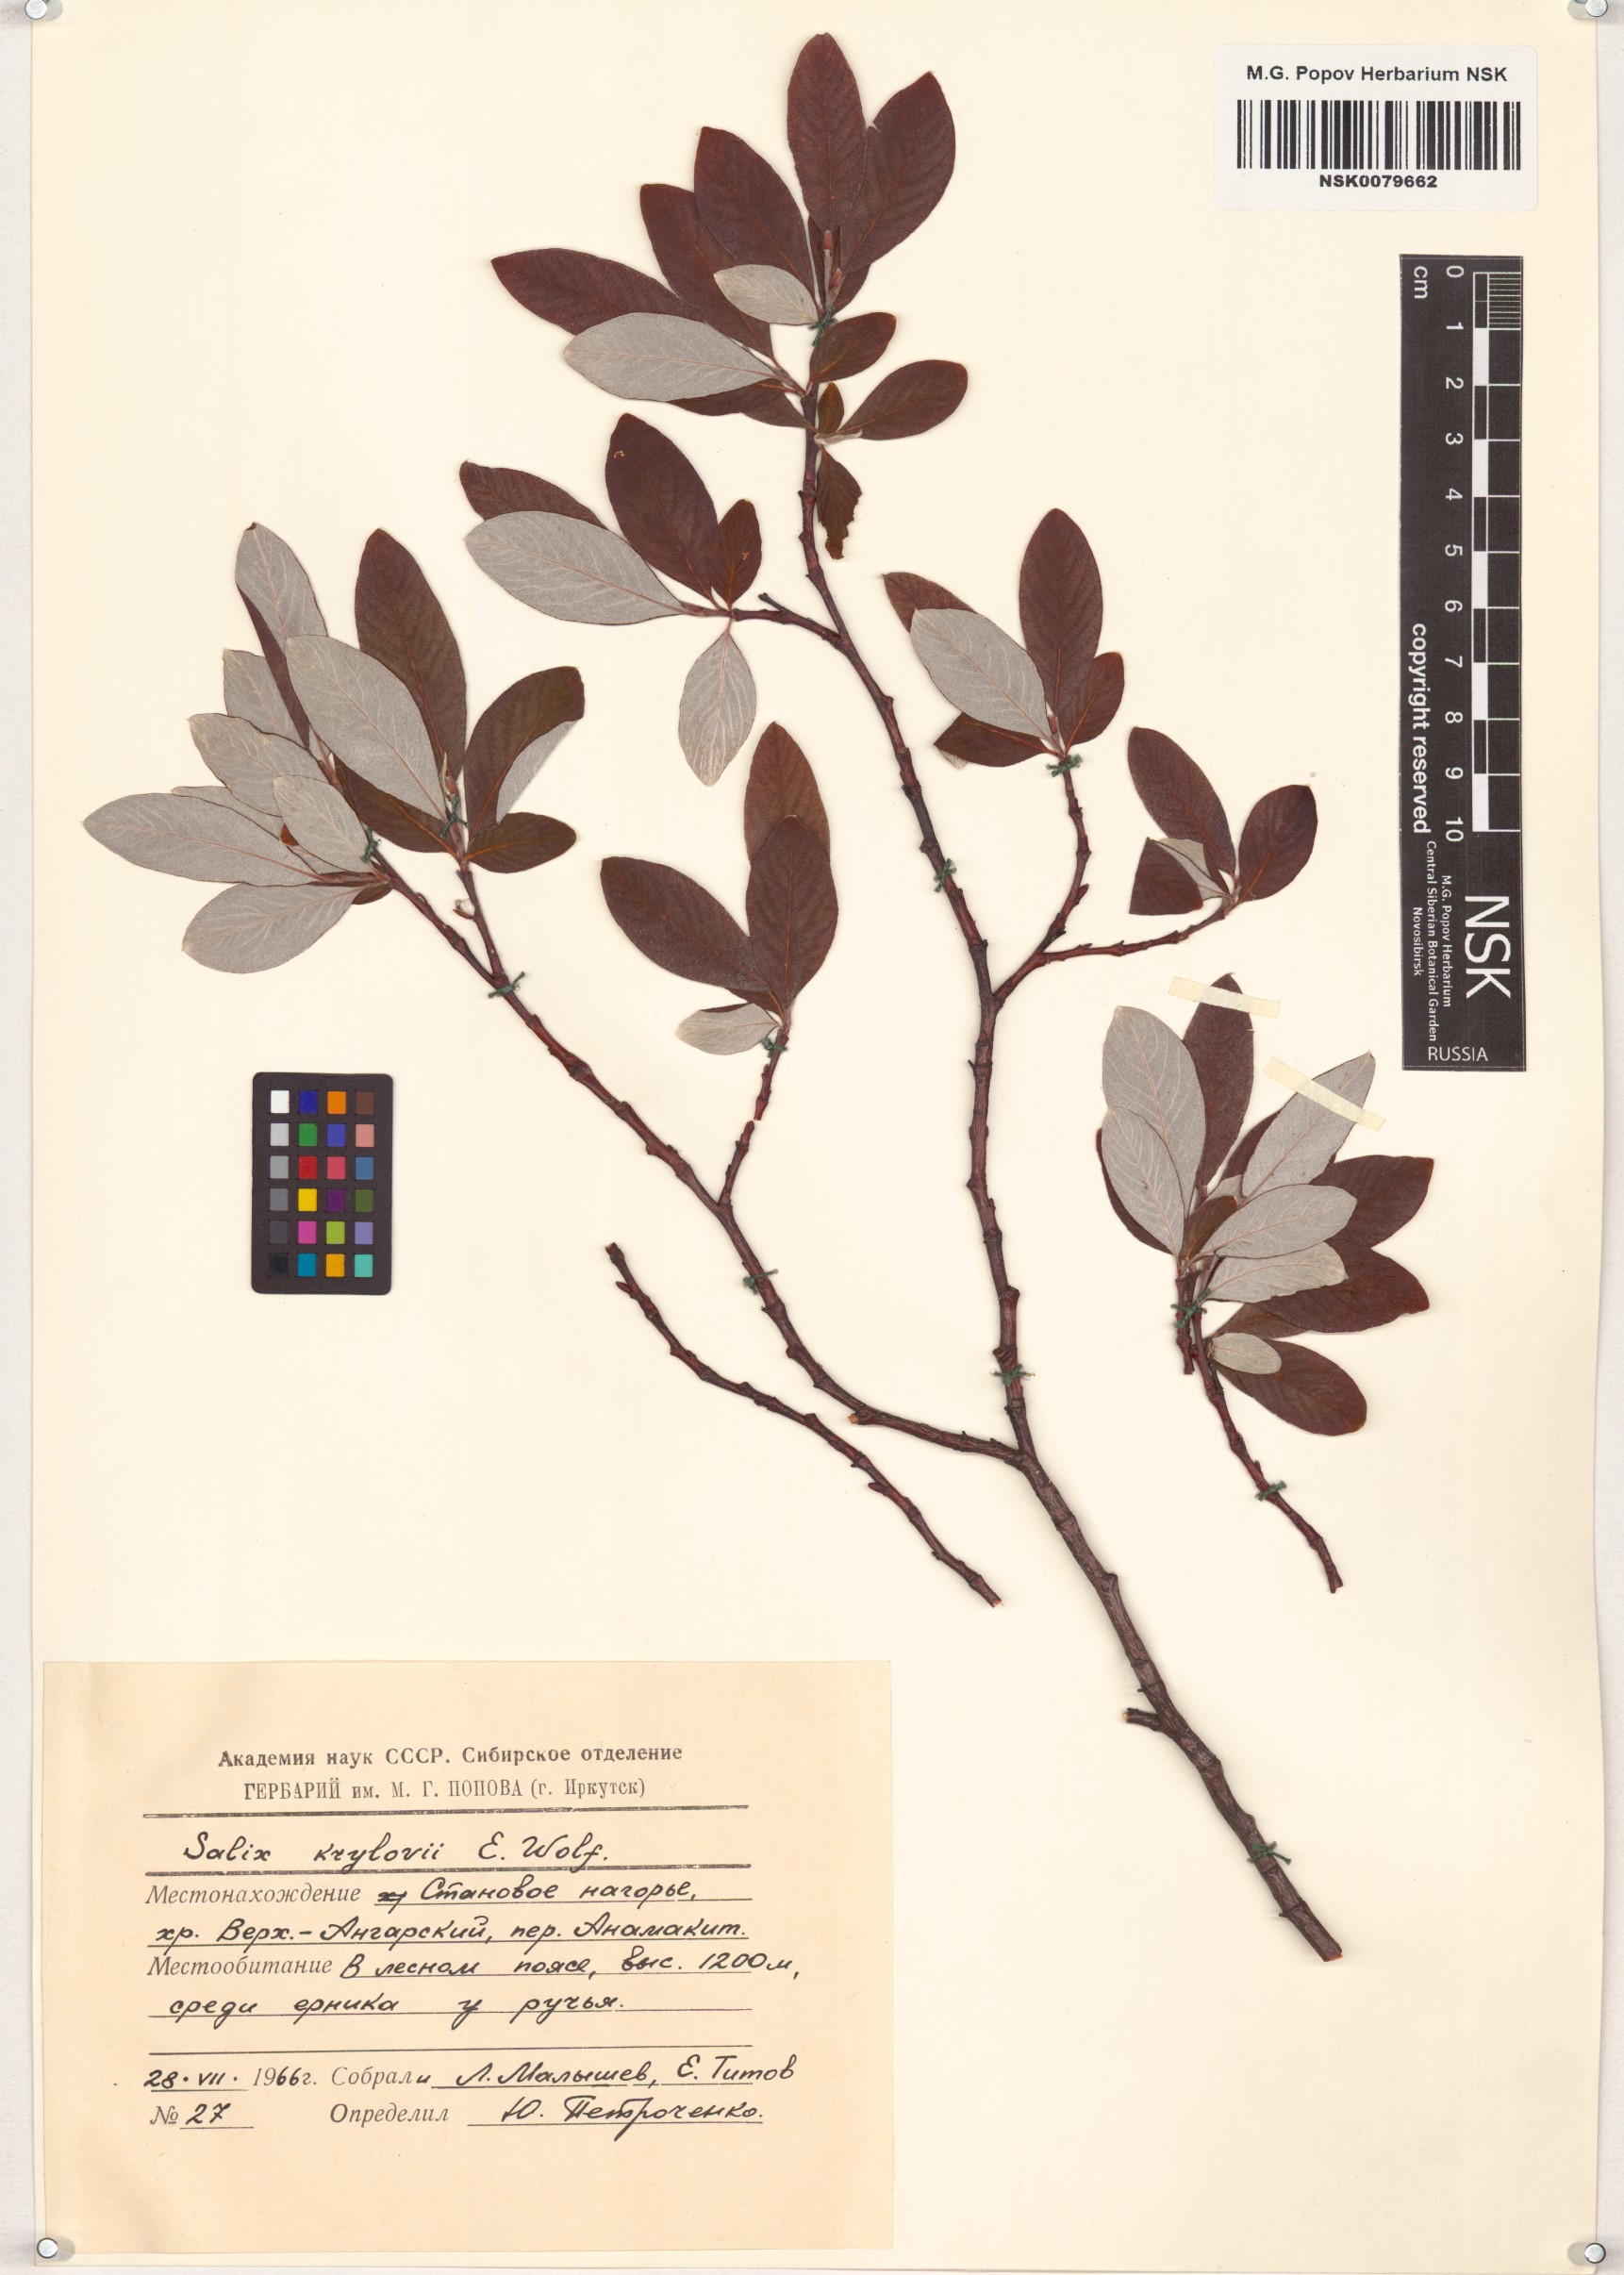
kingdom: Plantae
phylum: Tracheophyta
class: Magnoliopsida
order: Malpighiales
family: Salicaceae
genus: Salix
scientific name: Salix krylovii
